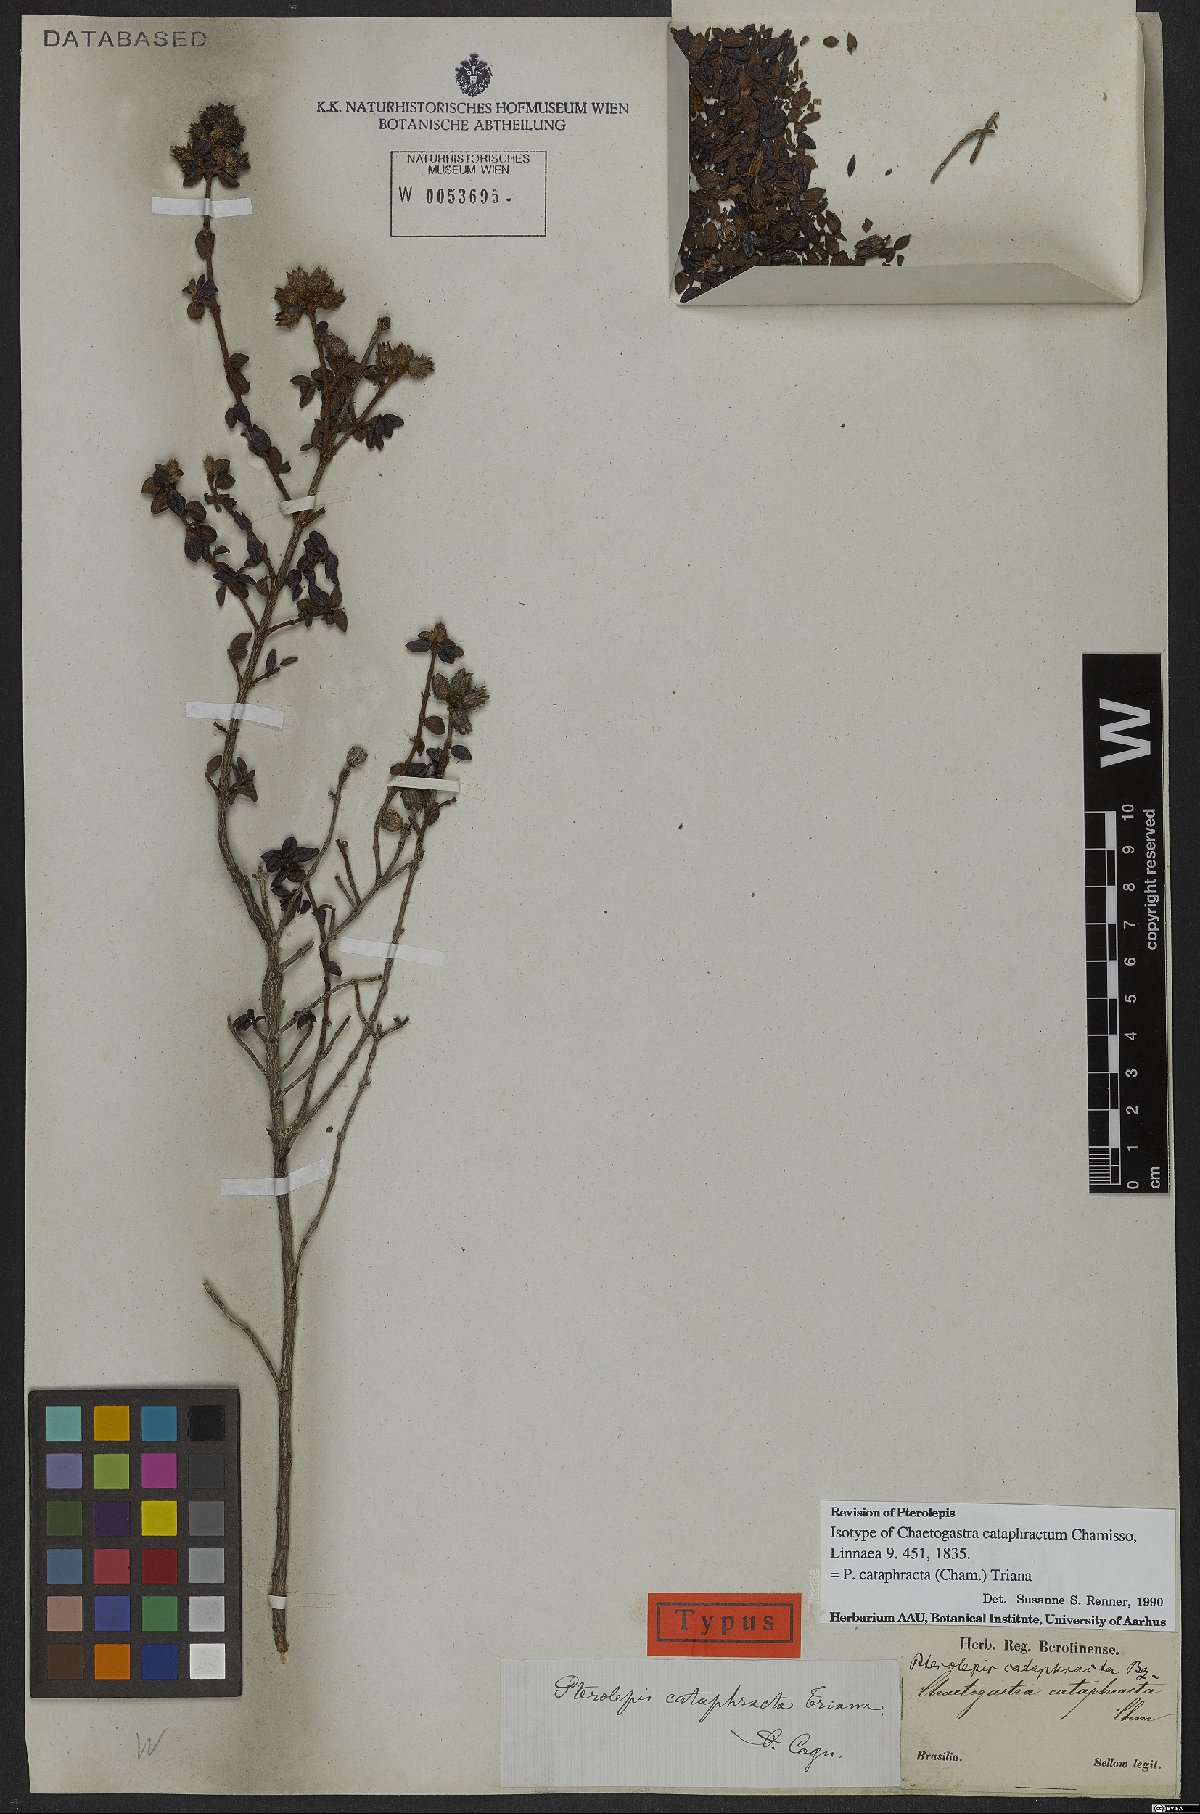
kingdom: Plantae
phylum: Tracheophyta
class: Magnoliopsida
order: Myrtales
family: Melastomataceae
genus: Pterolepis
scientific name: Pterolepis cataphracta
